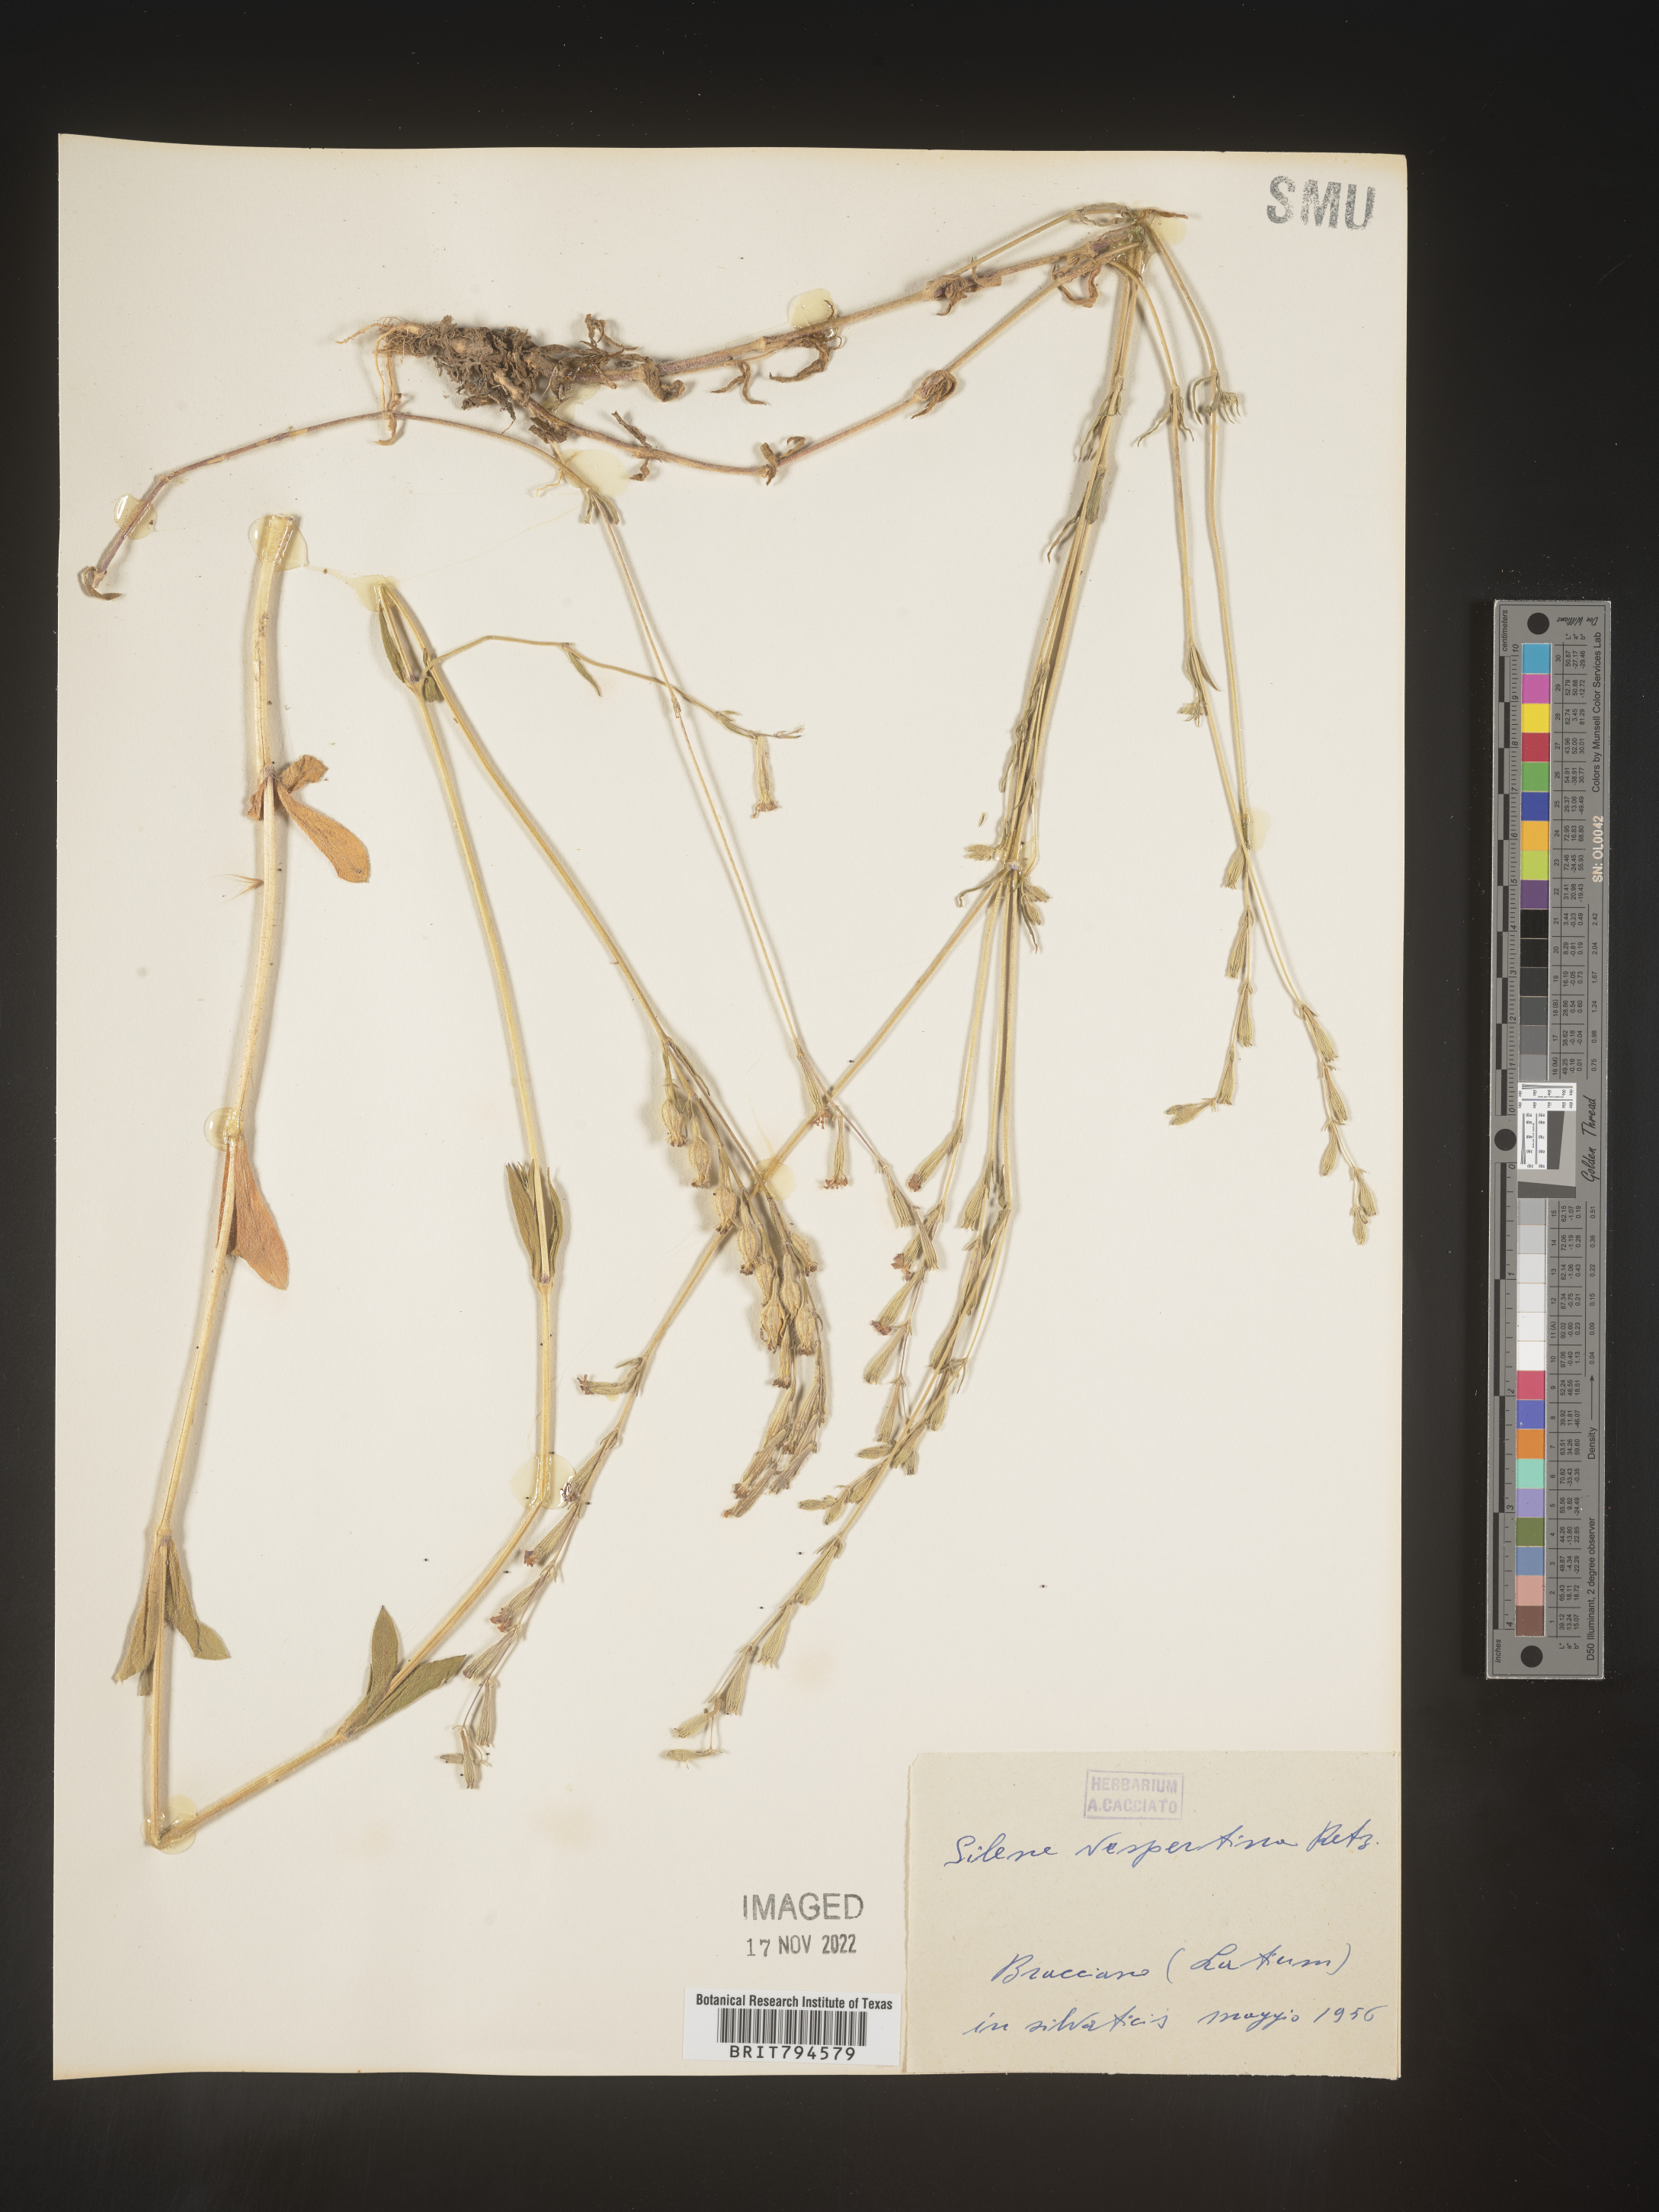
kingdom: Plantae
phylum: Tracheophyta
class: Magnoliopsida
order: Caryophyllales
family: Caryophyllaceae
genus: Silene
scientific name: Silene vulgaris
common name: Bladder campion
